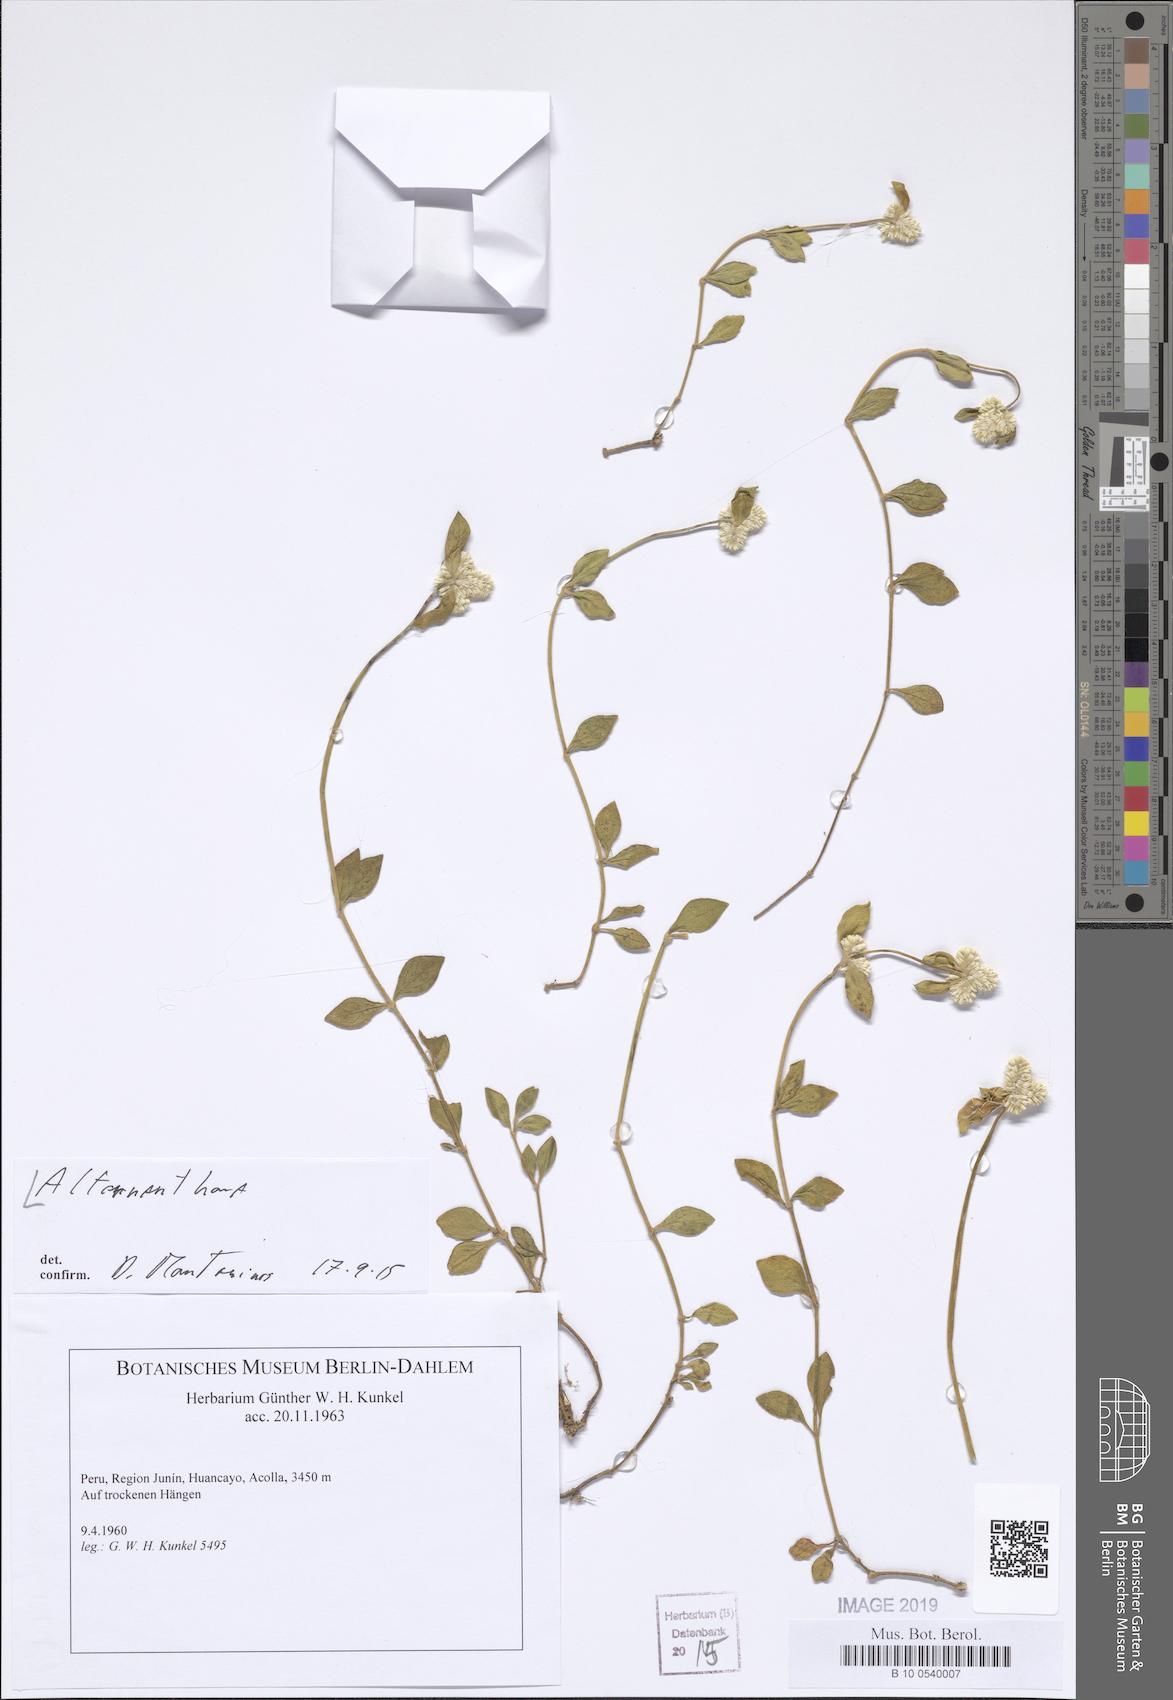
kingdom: Plantae
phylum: Tracheophyta
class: Magnoliopsida
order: Caryophyllales
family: Amaranthaceae
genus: Alternanthera
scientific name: Alternanthera
